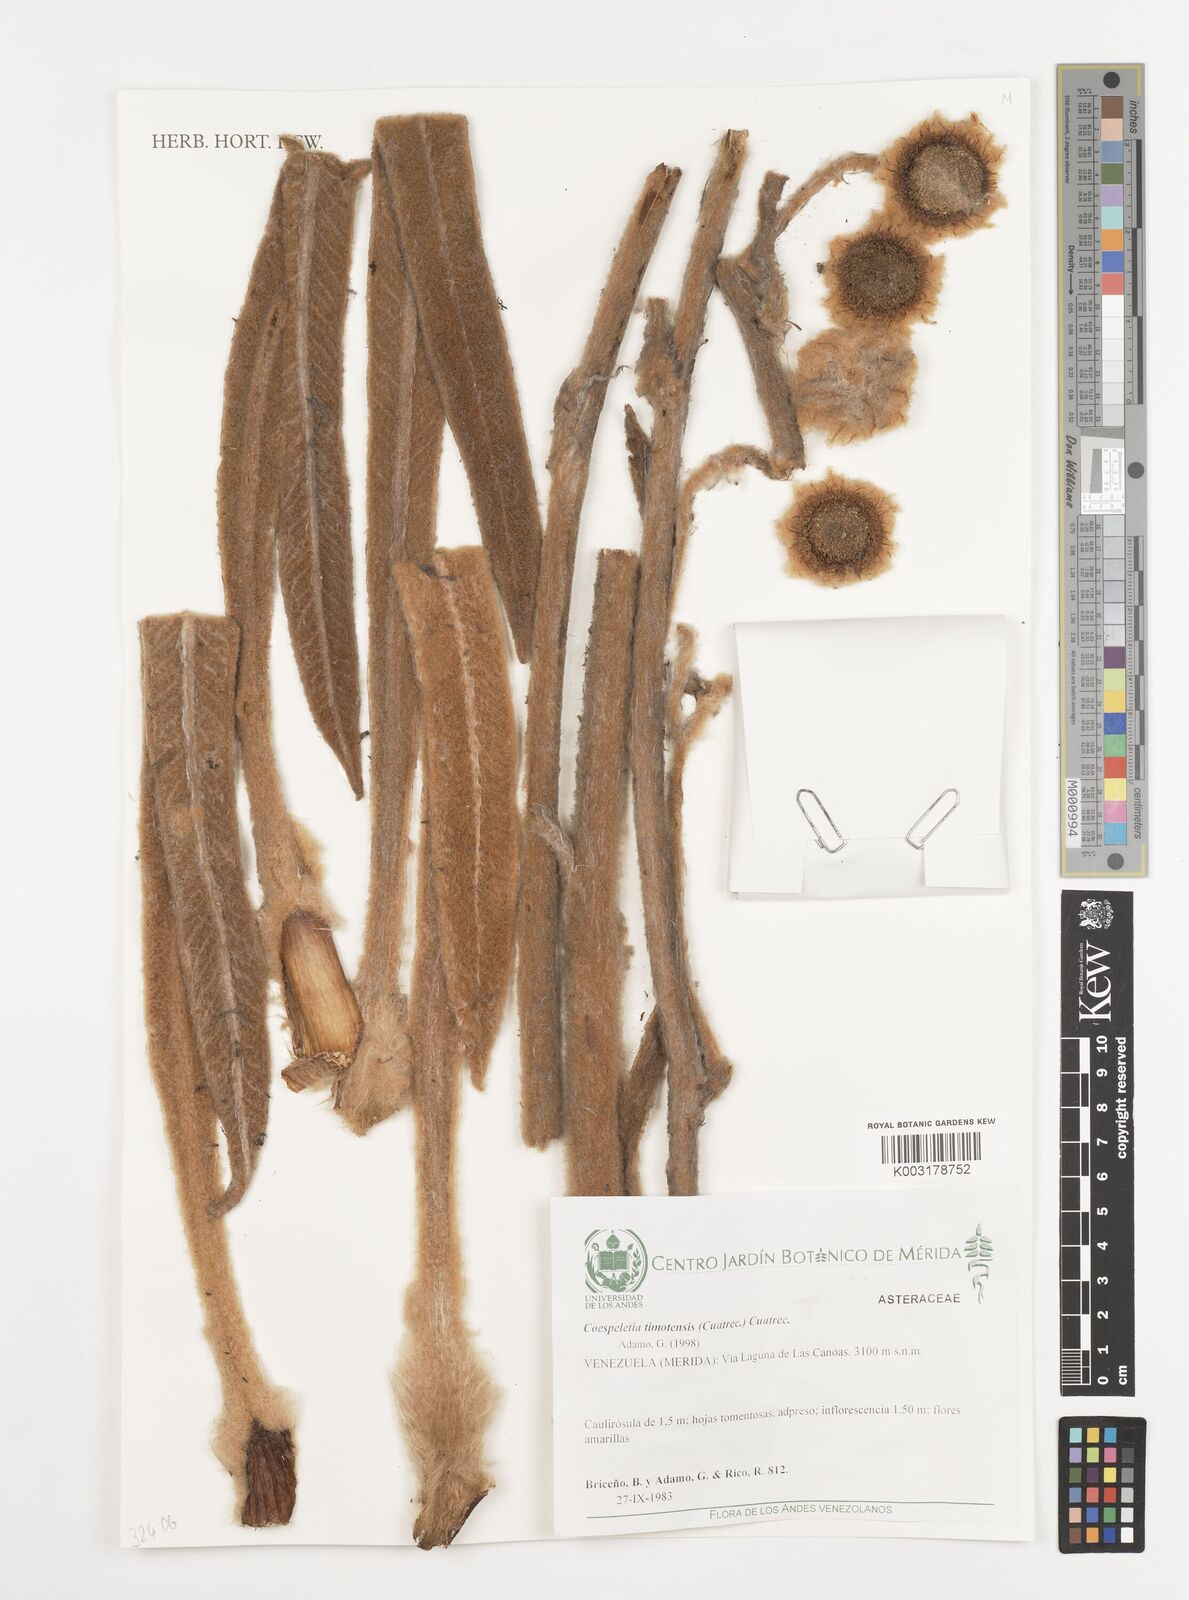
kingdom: Plantae
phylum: Tracheophyta
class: Magnoliopsida
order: Asterales
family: Asteraceae
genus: Espeletia
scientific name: Espeletia timotensis
